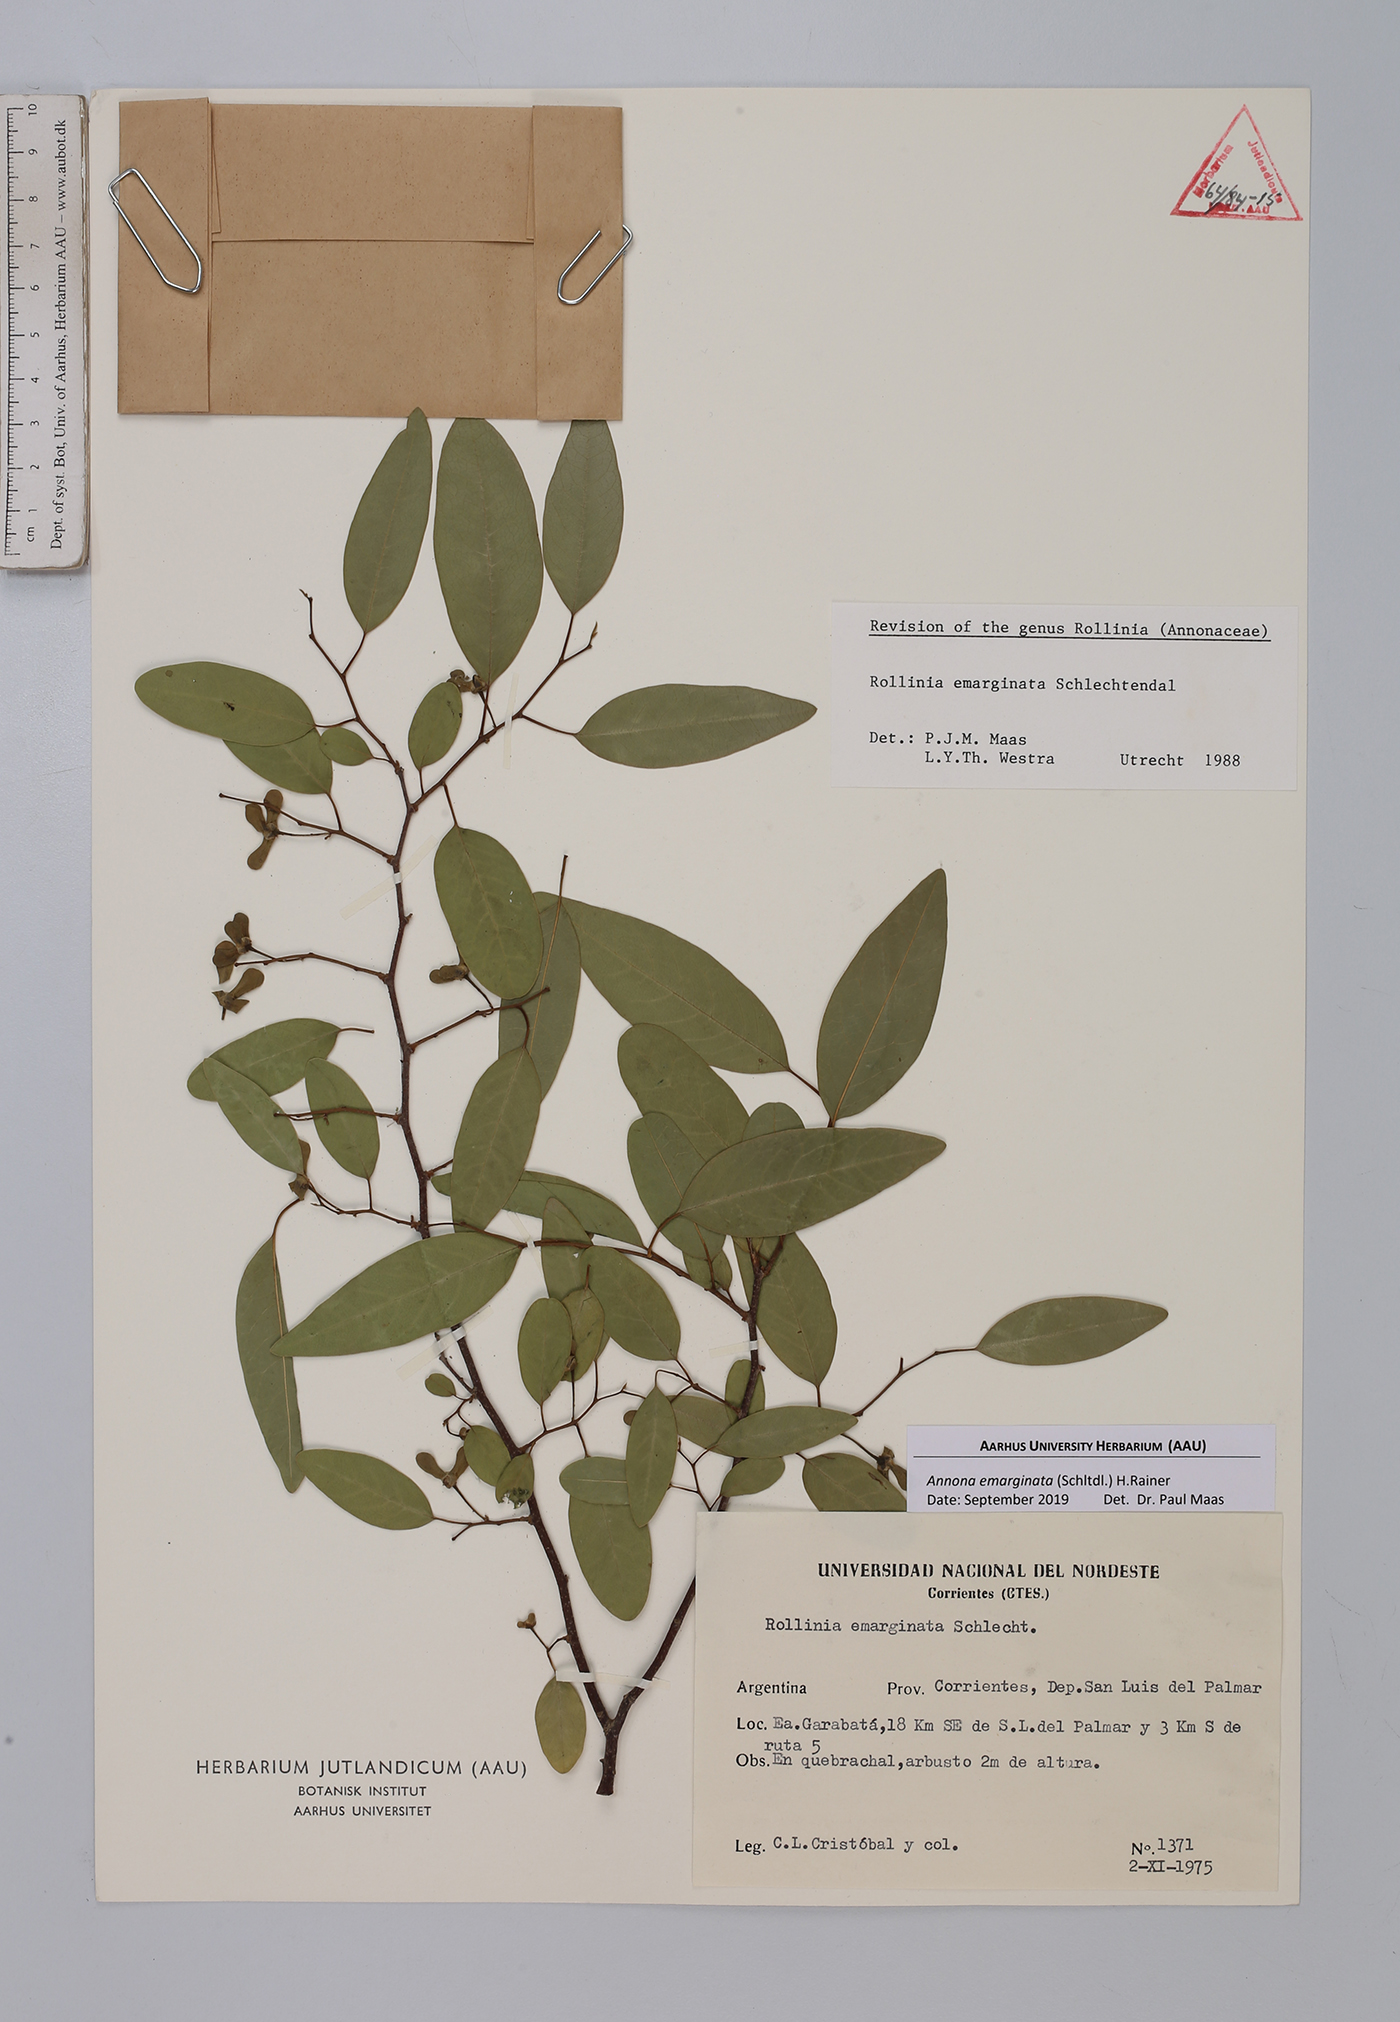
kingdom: Plantae
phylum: Tracheophyta
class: Magnoliopsida
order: Magnoliales
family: Annonaceae
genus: Annona
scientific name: Annona emarginata
